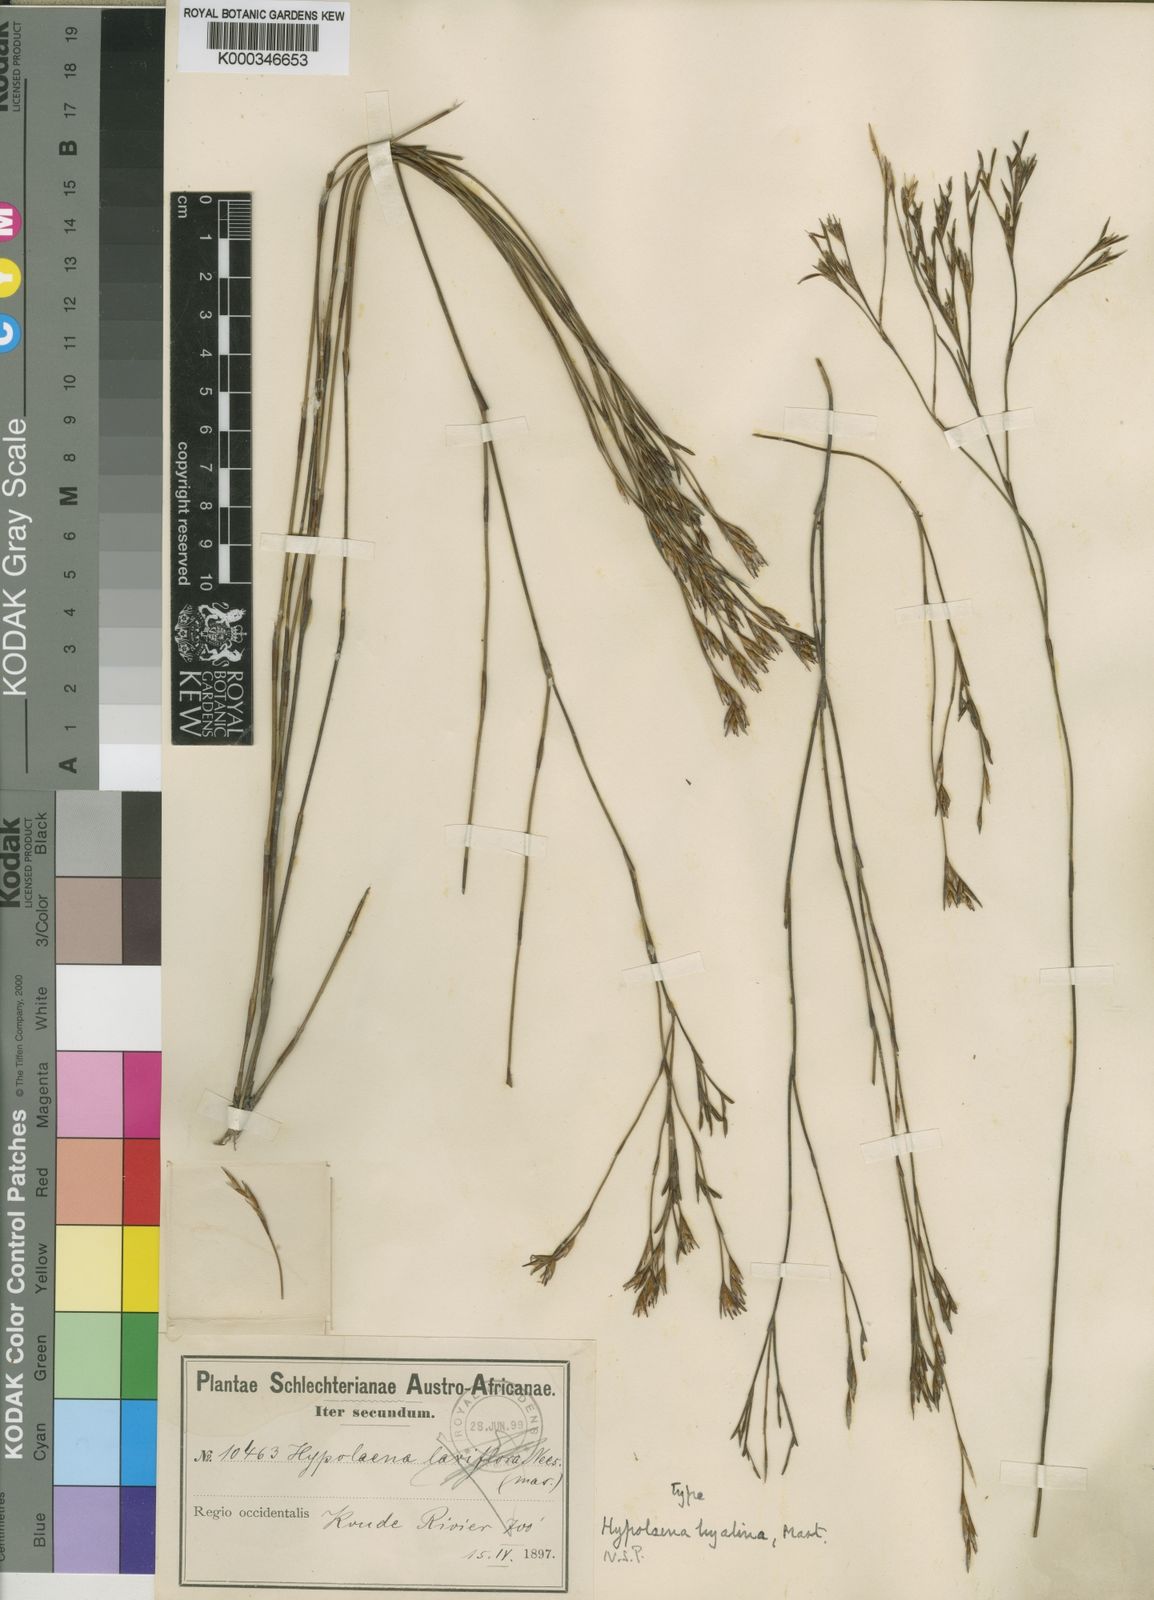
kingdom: Plantae
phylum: Tracheophyta
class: Liliopsida
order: Poales
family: Restionaceae
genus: Restio
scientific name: Restio hyalinus
